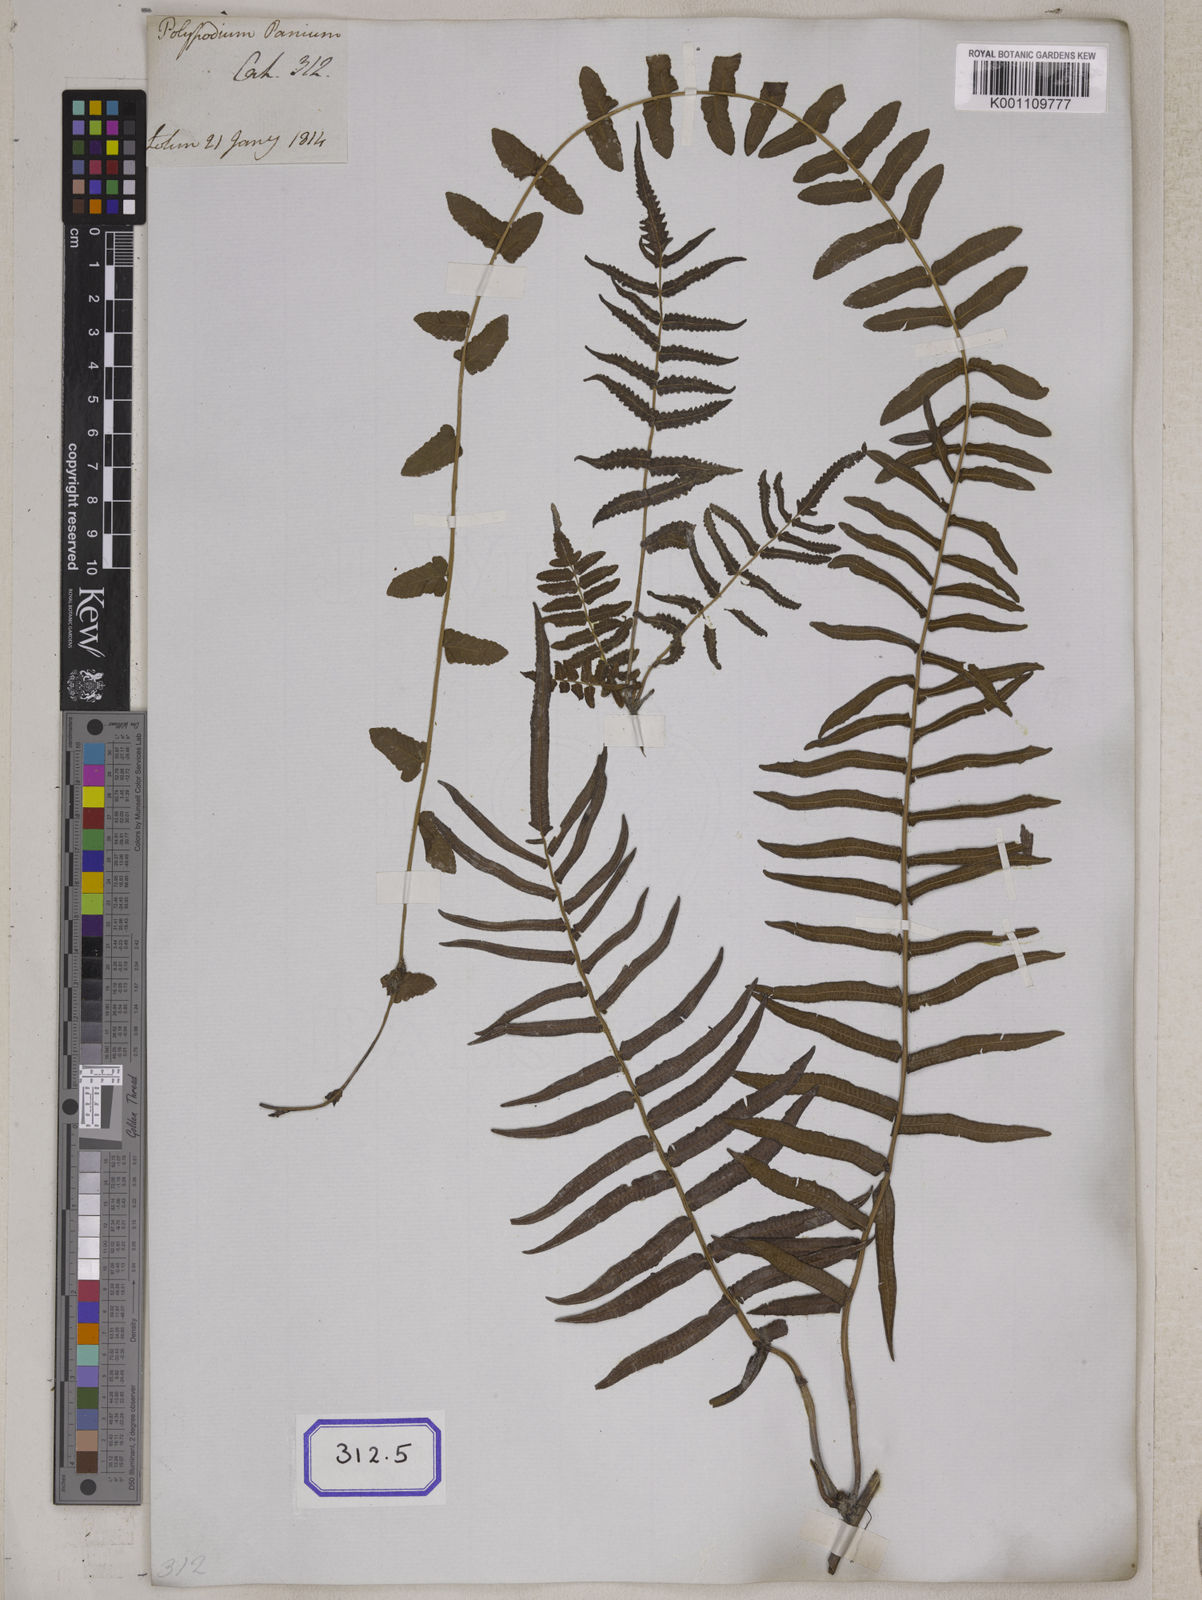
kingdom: Plantae
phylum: Tracheophyta
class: Polypodiopsida
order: Polypodiales
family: Polypodiaceae
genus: Polypodium
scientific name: Polypodium
